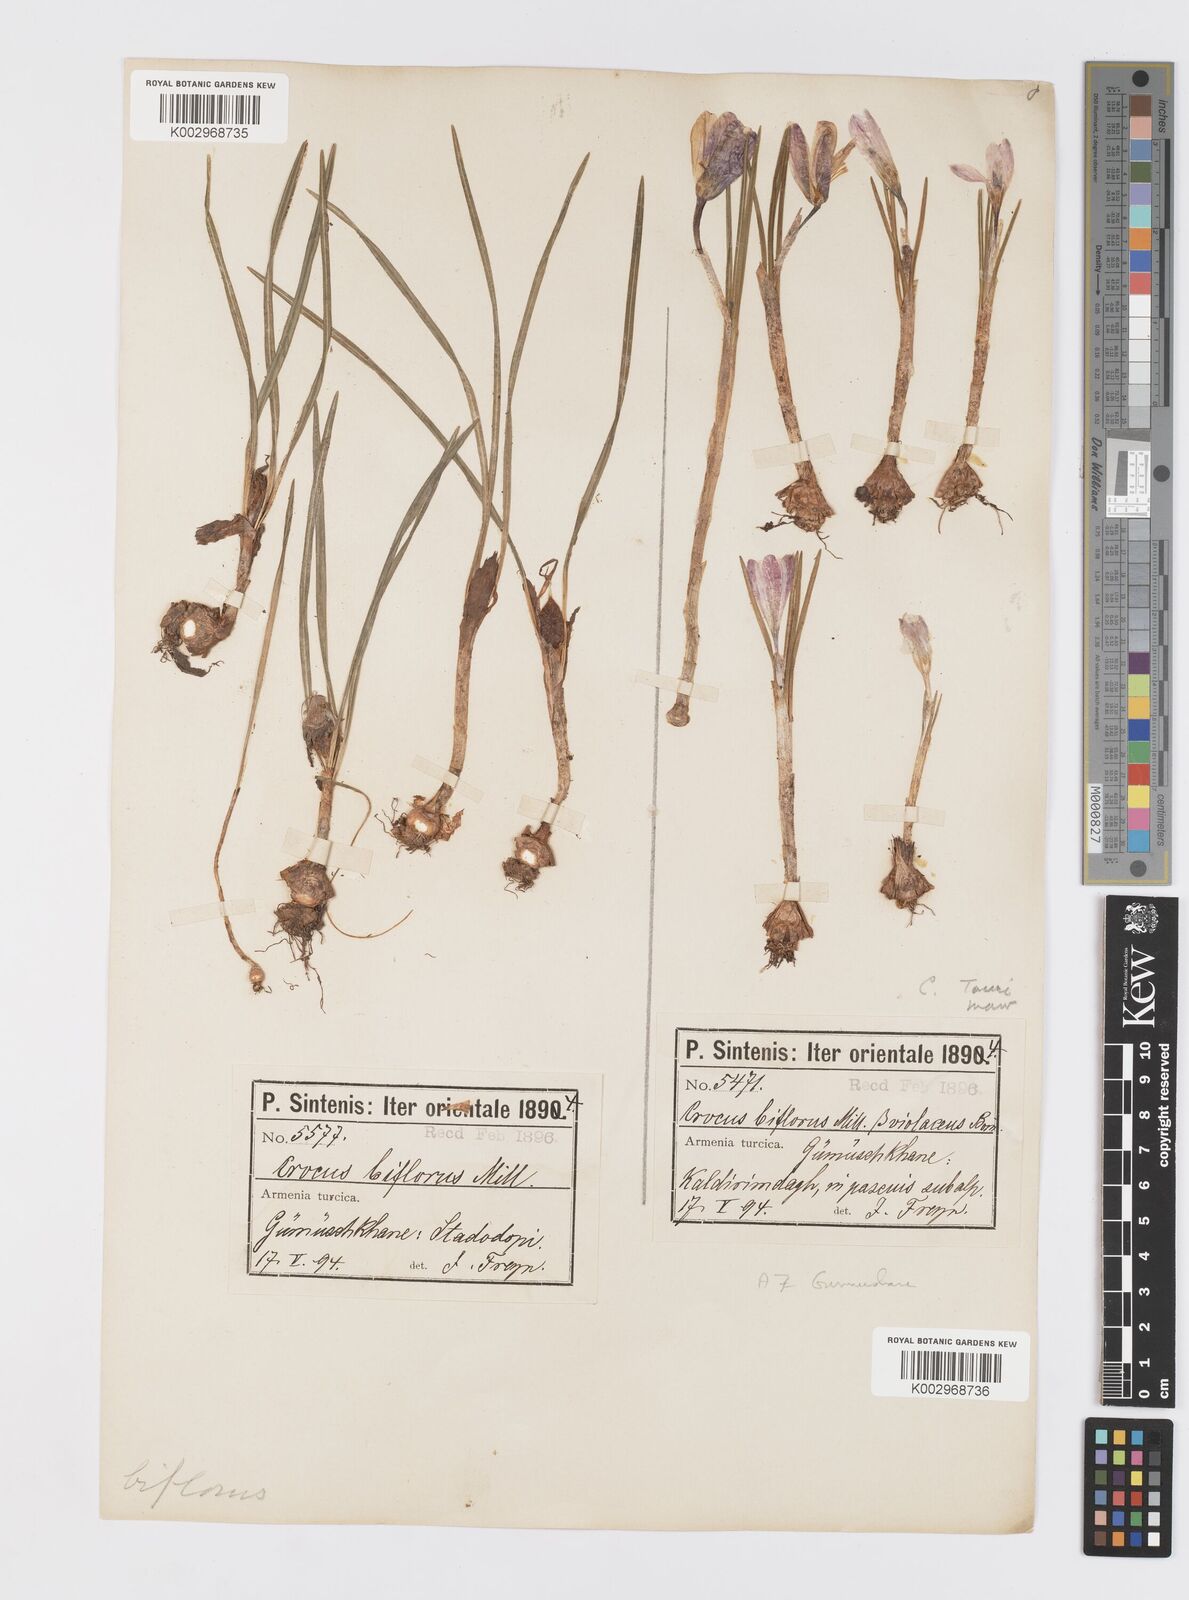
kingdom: Plantae
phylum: Tracheophyta
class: Liliopsida
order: Asparagales
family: Iridaceae
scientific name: Iridaceae
